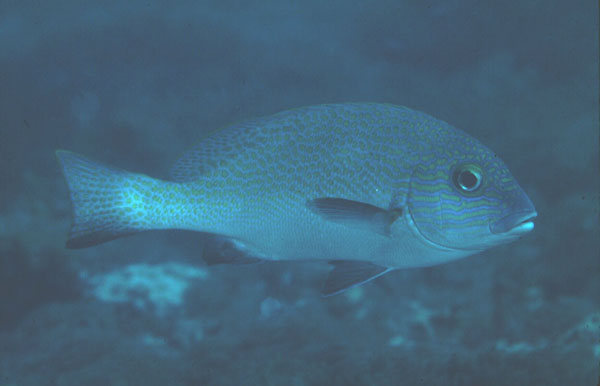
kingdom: Animalia
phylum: Chordata
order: Perciformes
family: Haemulidae
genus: Plectorhinchus
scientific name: Plectorhinchus flavomaculatus
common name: Netted sweetlips
